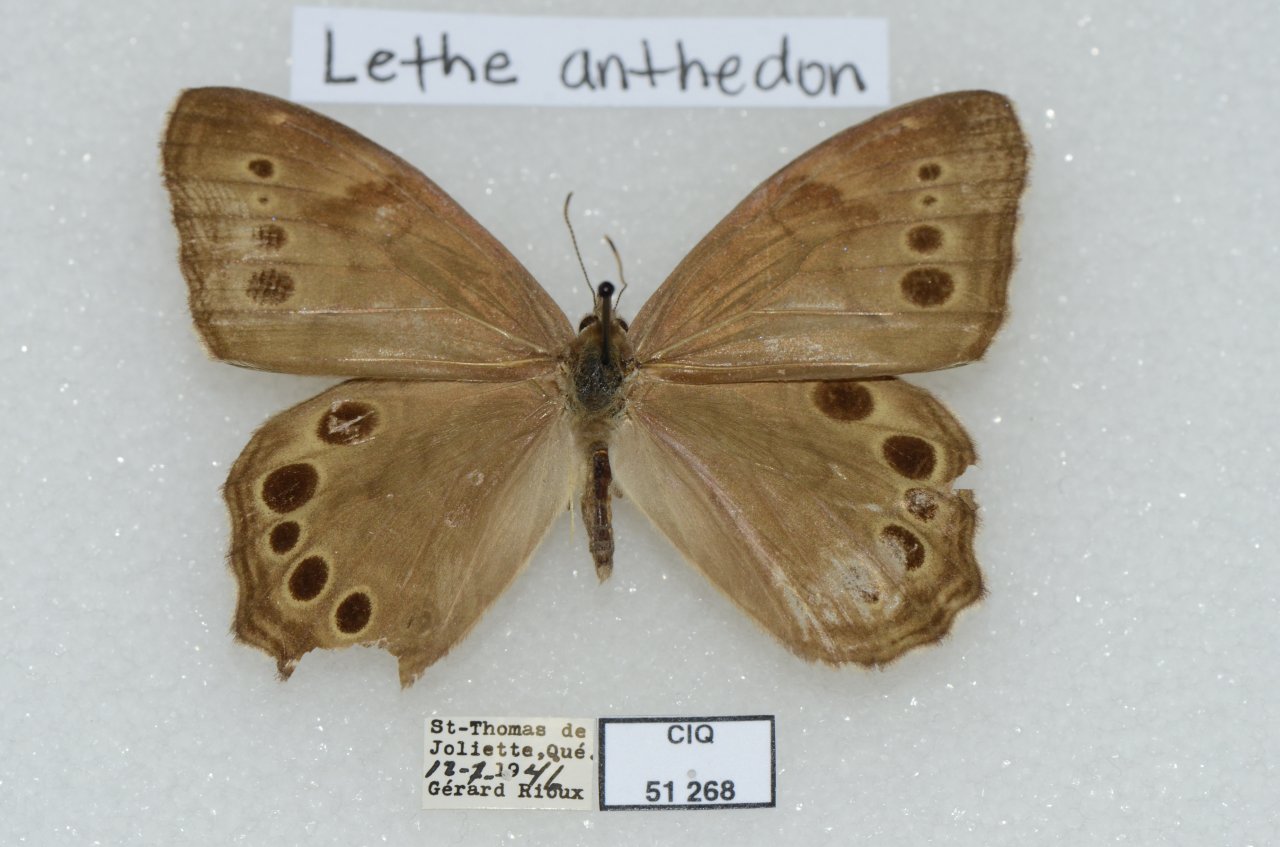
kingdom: Animalia
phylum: Arthropoda
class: Insecta
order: Lepidoptera
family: Nymphalidae
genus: Lethe
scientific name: Lethe anthedon
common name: Northern Pearly-Eye
